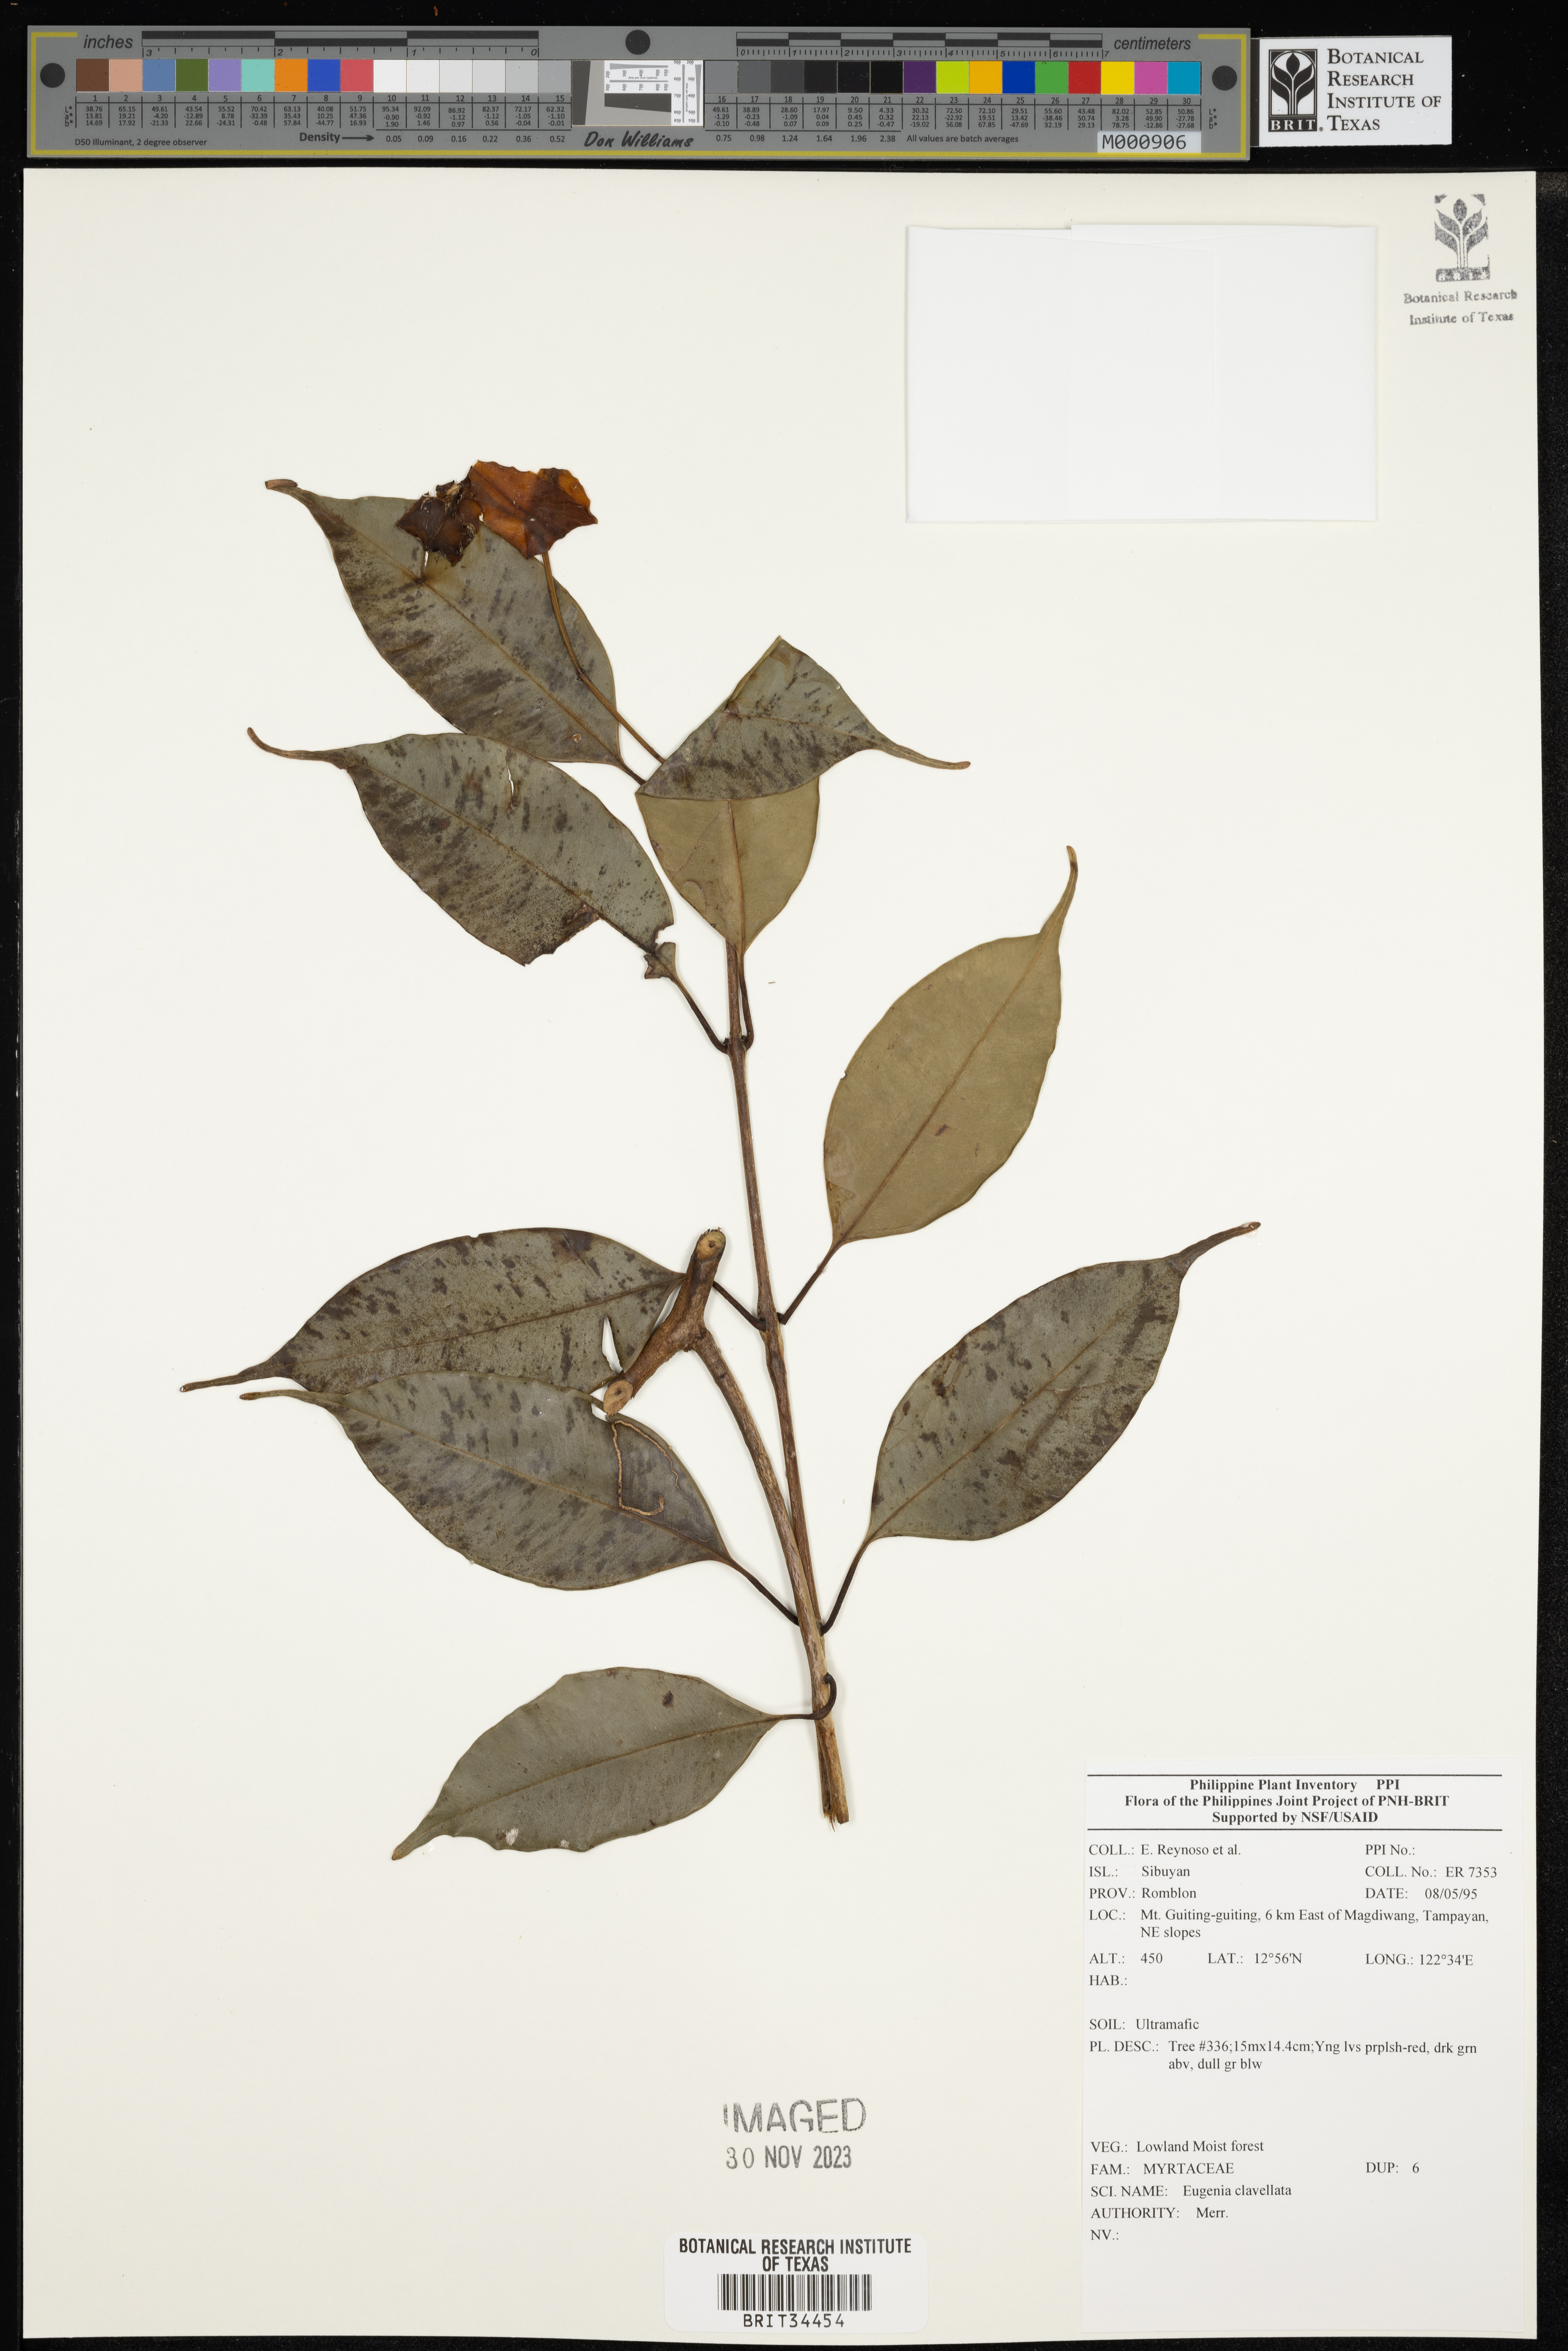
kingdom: Plantae
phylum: Tracheophyta
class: Magnoliopsida
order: Myrtales
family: Myrtaceae
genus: Eugenia
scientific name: Eugenia
